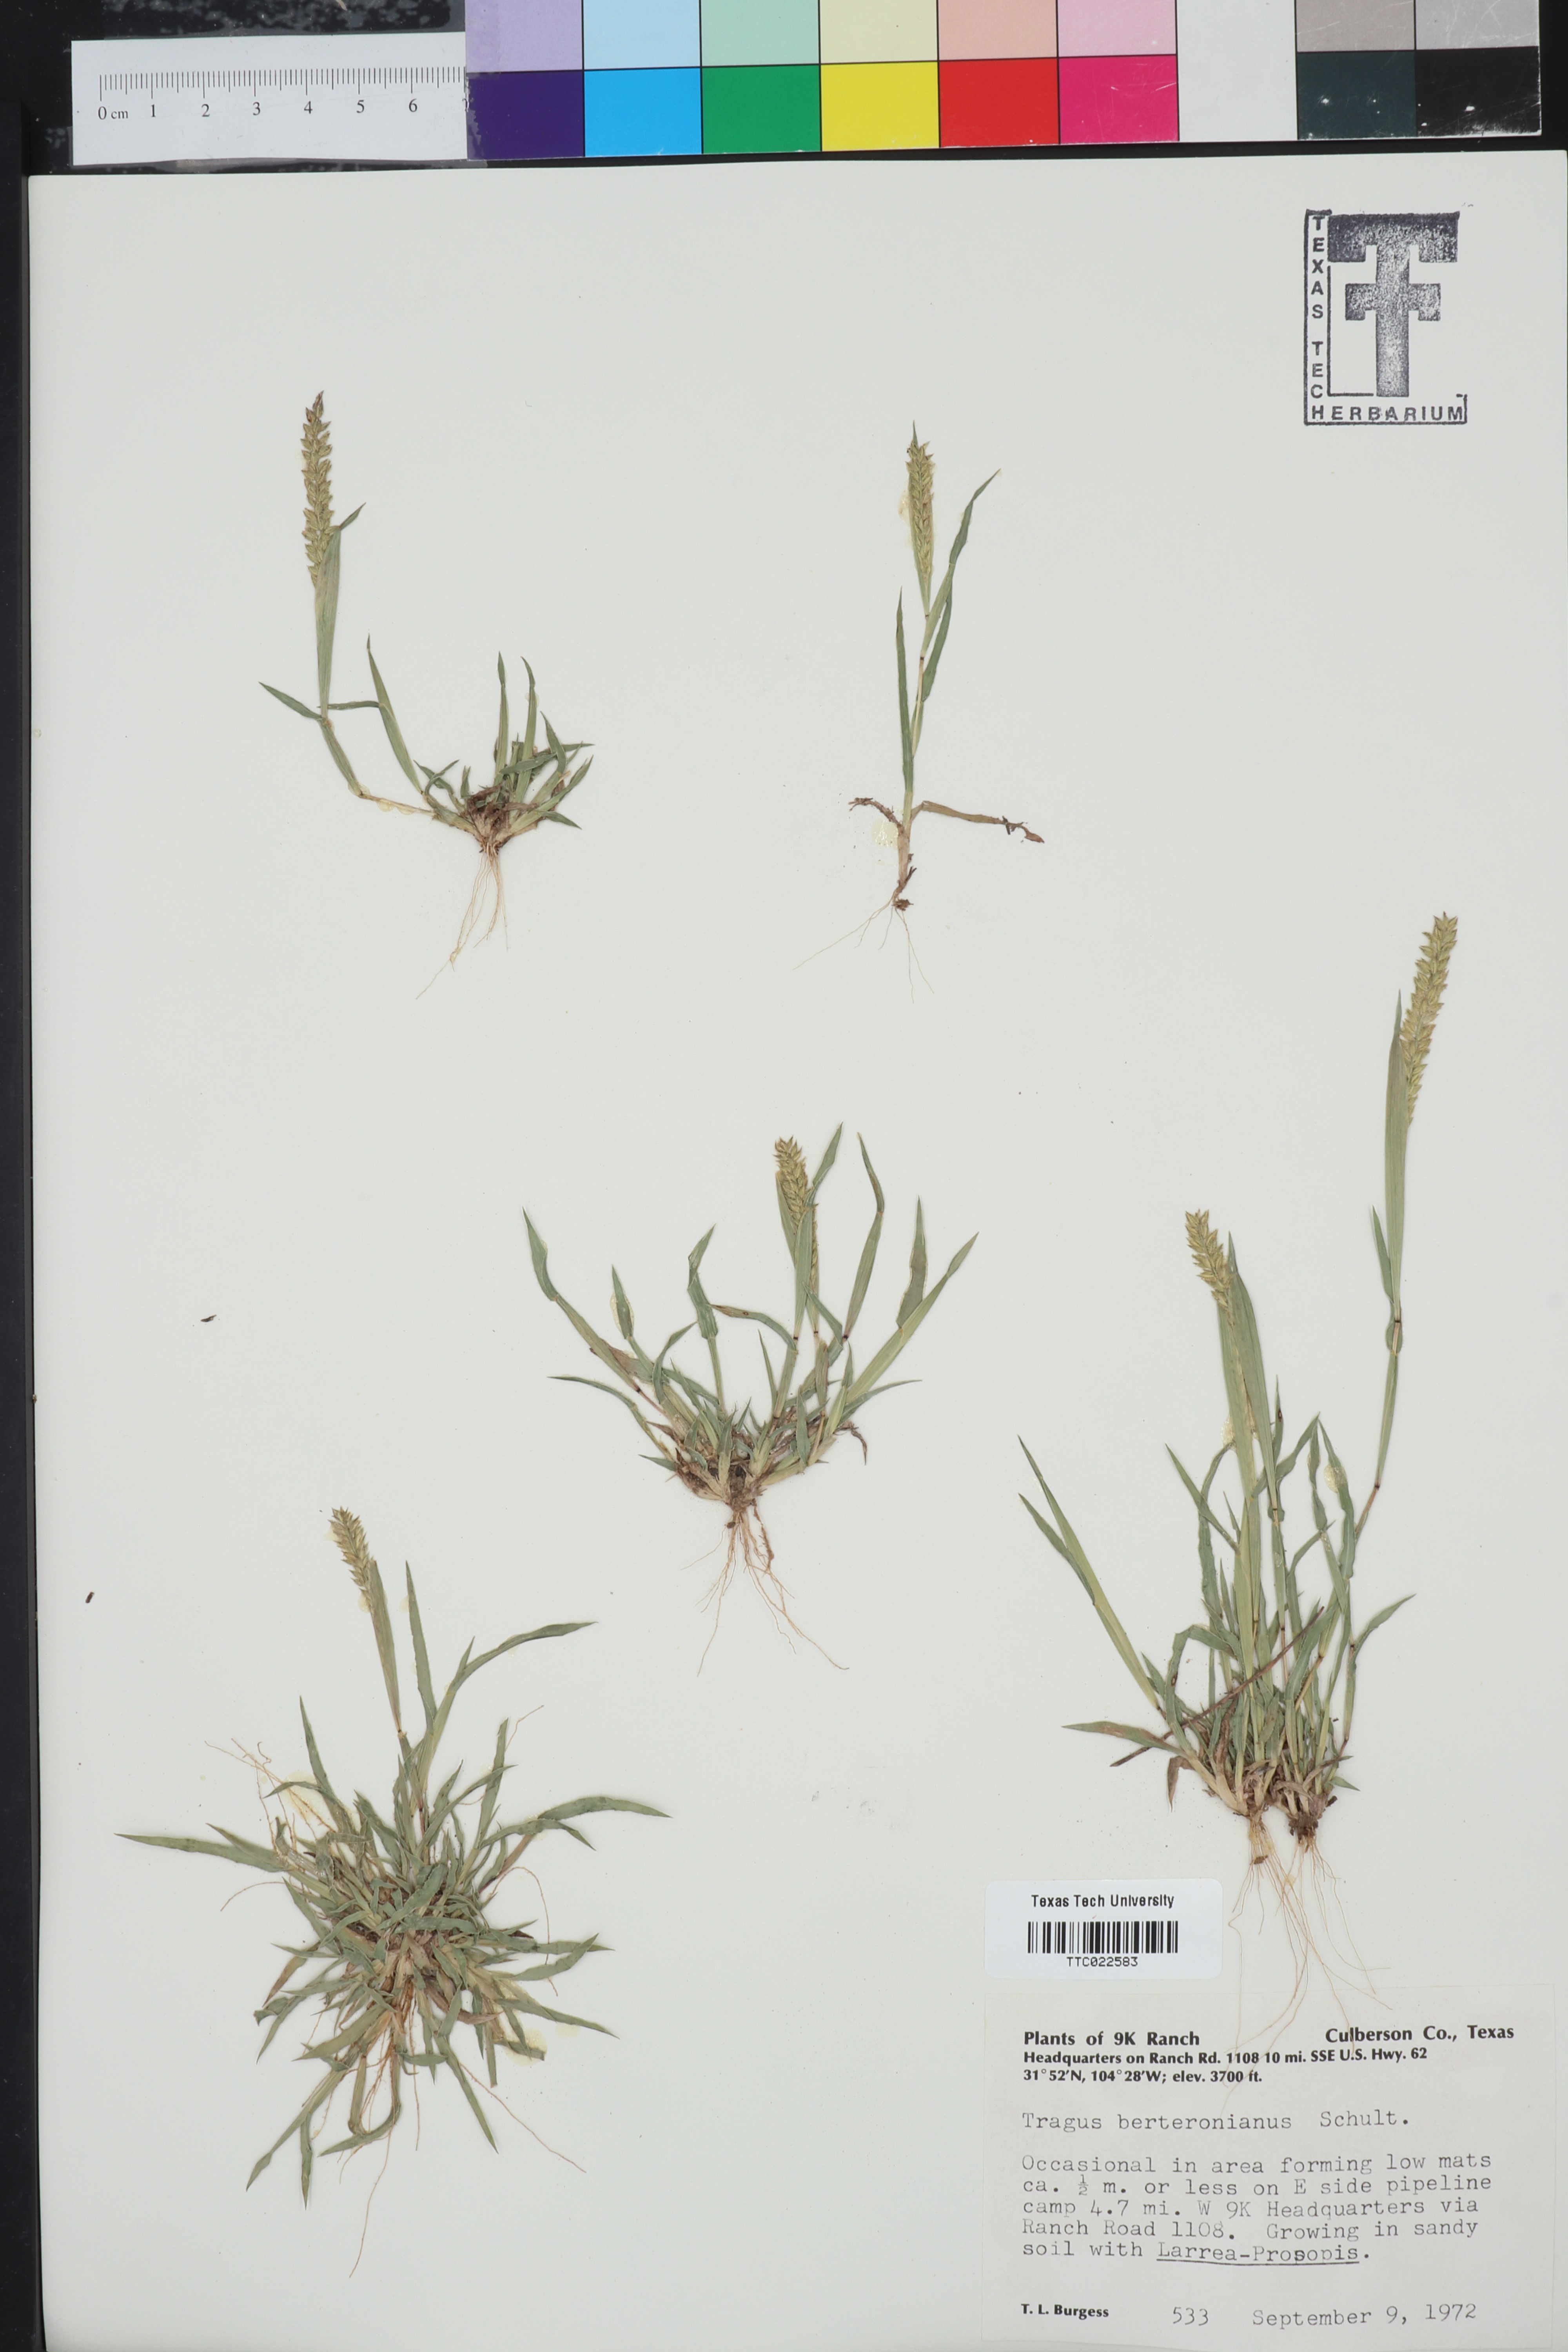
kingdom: Plantae
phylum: Tracheophyta
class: Liliopsida
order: Poales
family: Poaceae
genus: Tragus
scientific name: Tragus berteronianus
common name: African bur-grass
